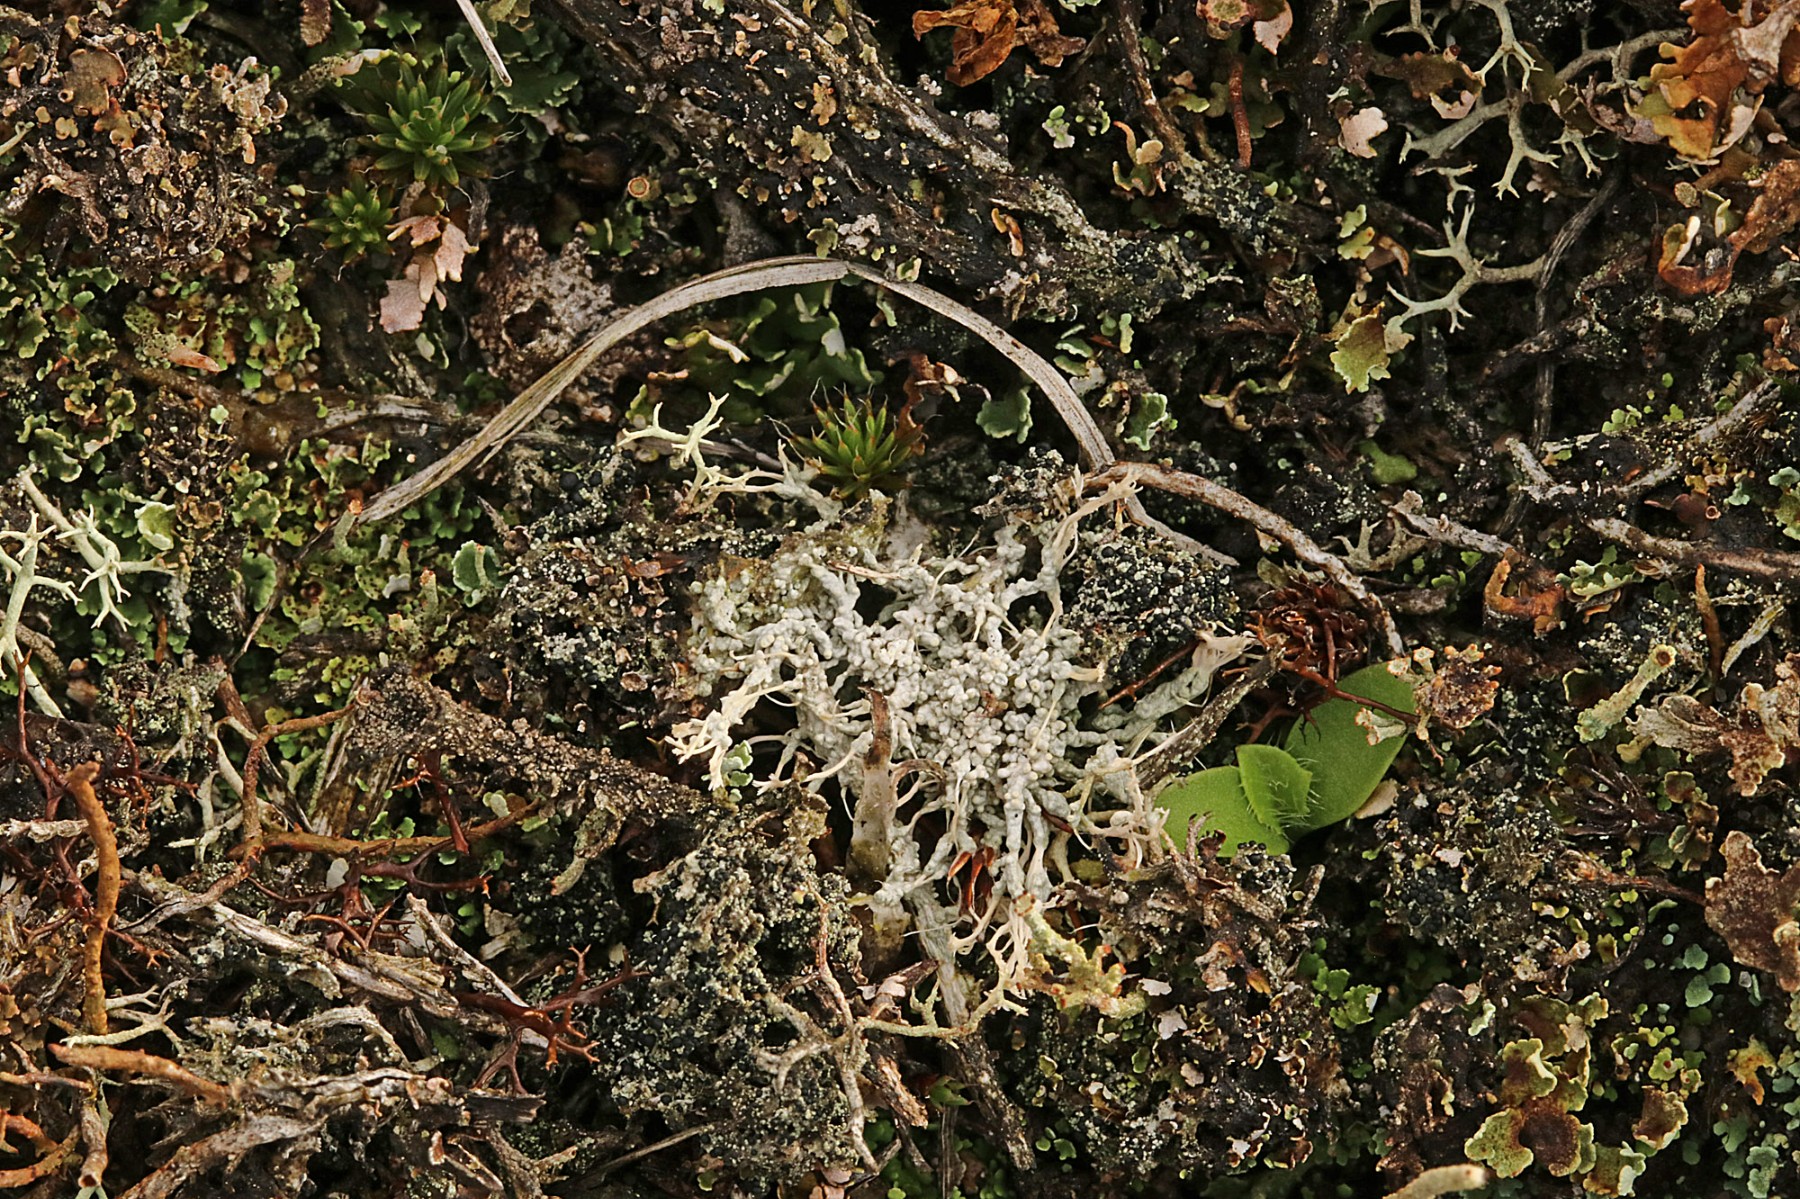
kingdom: Fungi
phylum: Ascomycota
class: Lecanoromycetes
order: Pertusariales
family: Ochrolechiaceae
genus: Ochrolechia
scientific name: Ochrolechia frigida
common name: fjeld-blegskivelav
